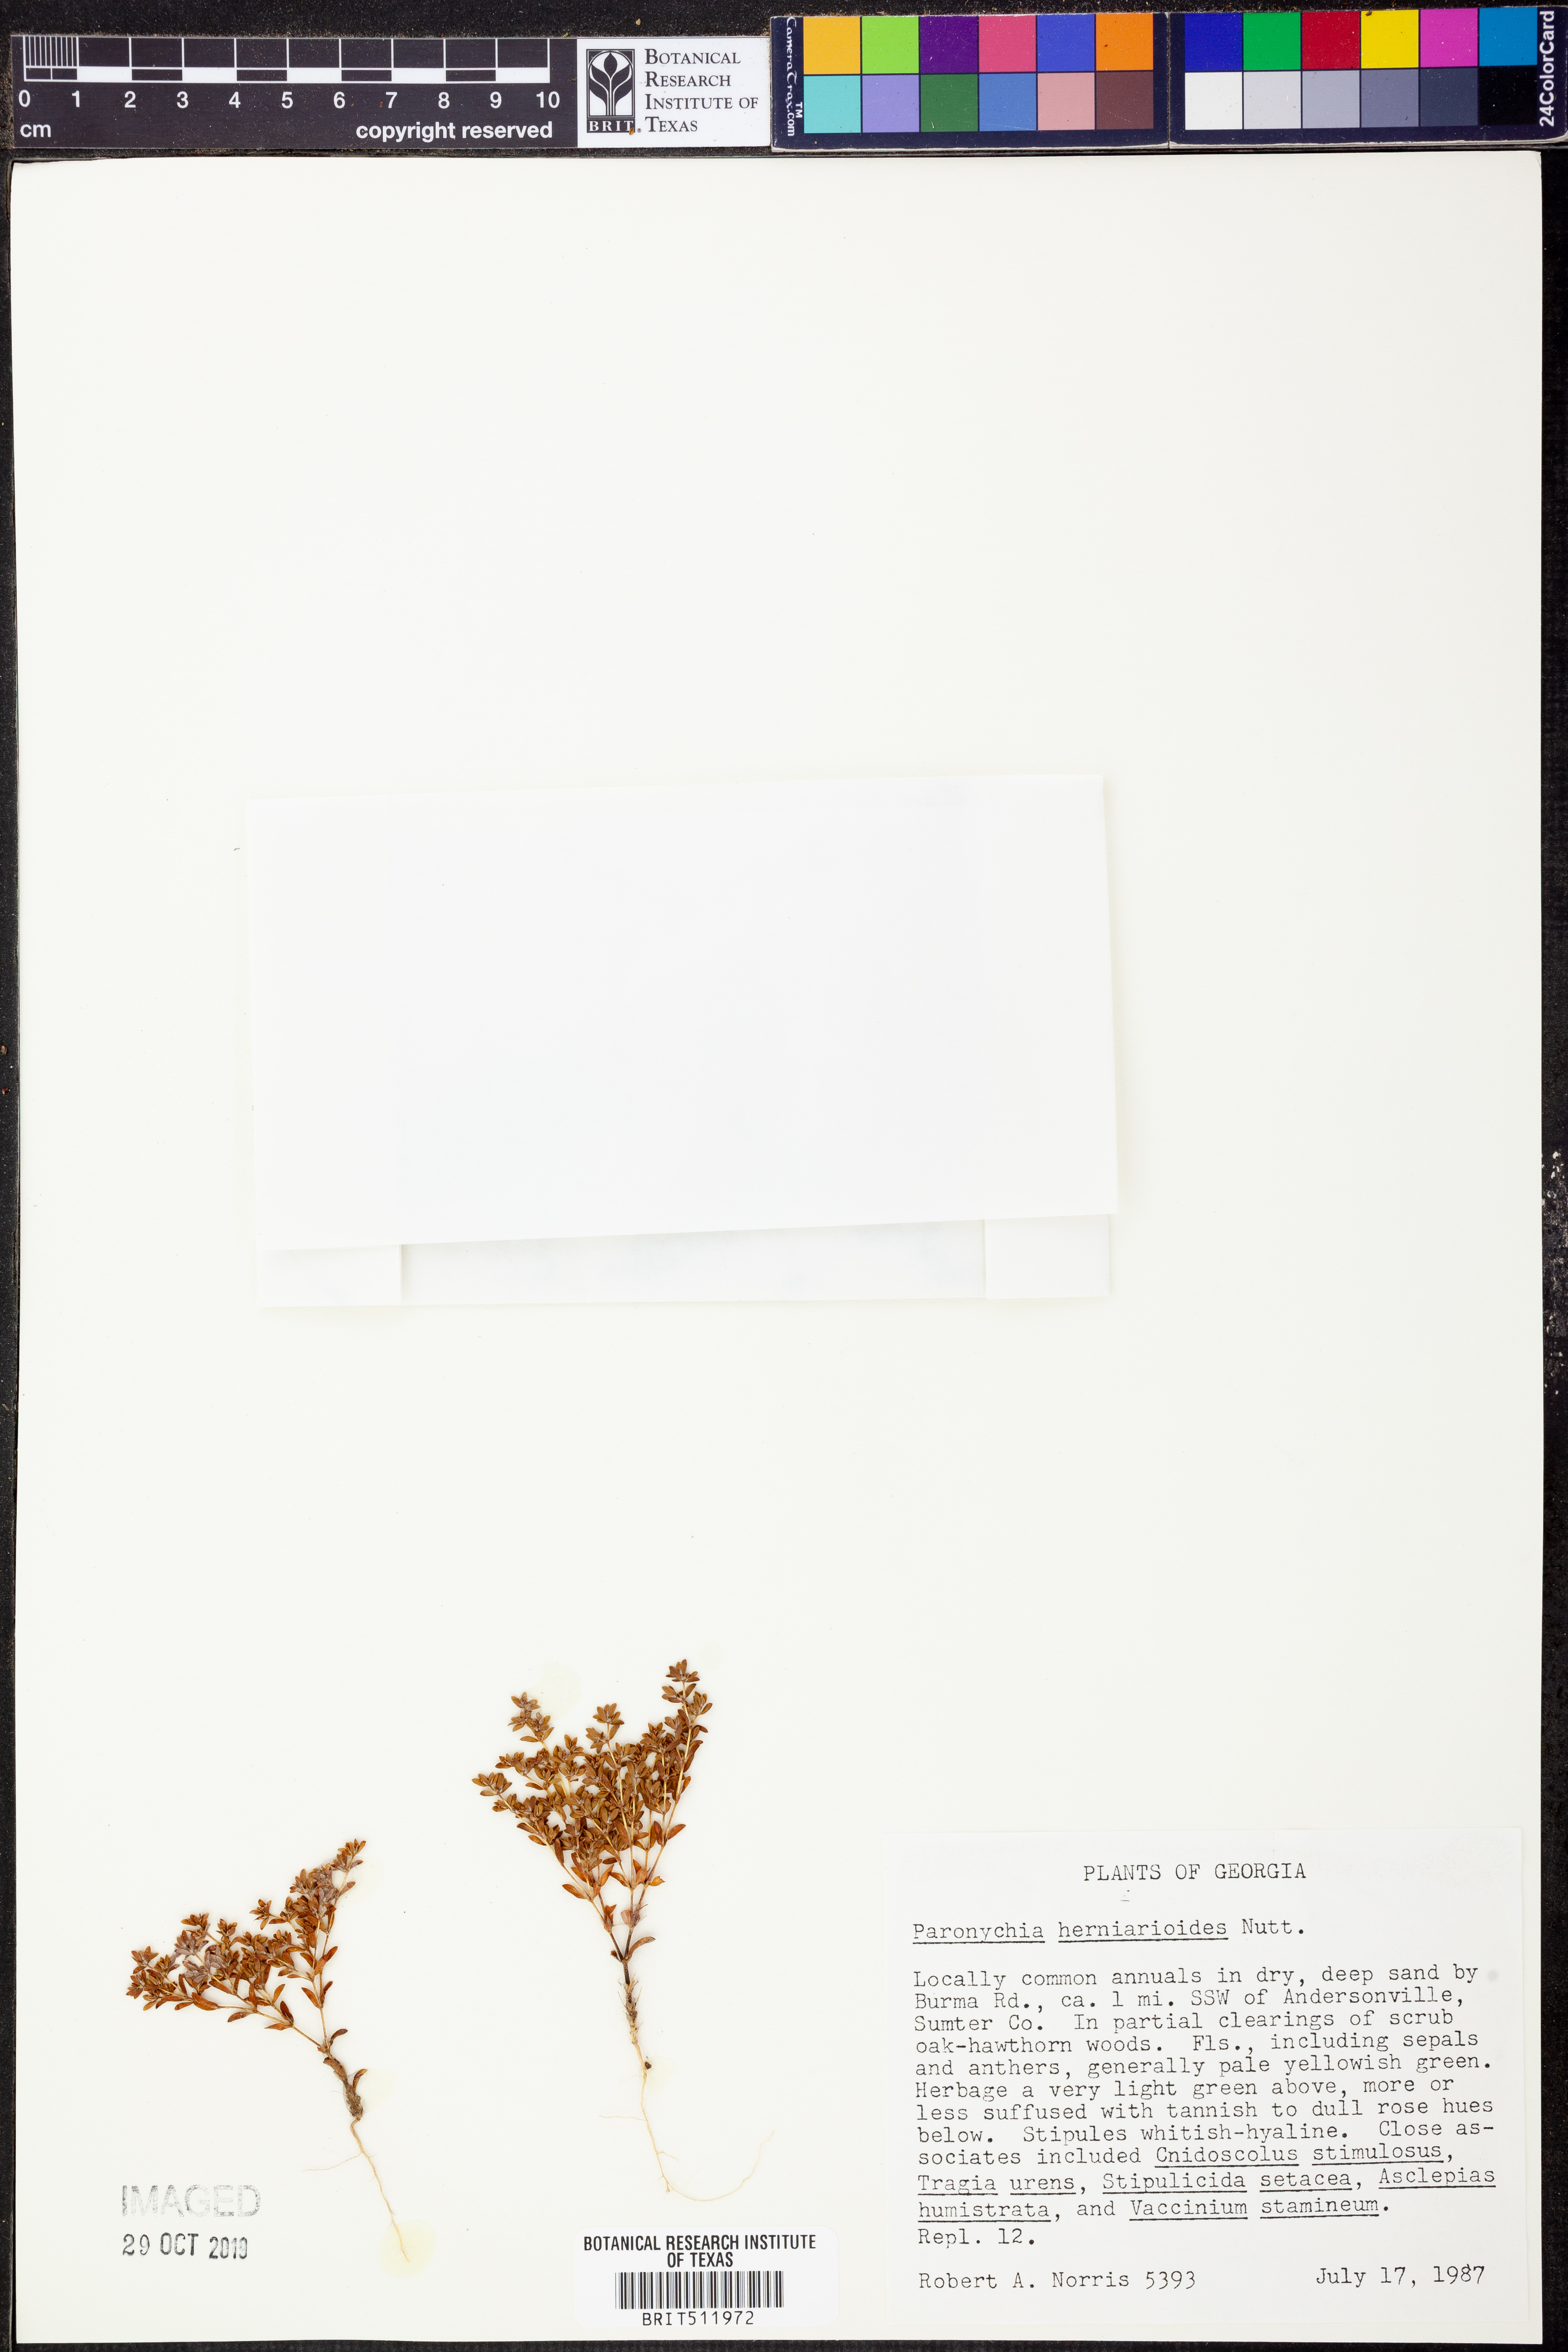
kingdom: Plantae
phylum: Tracheophyta
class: Magnoliopsida
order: Caryophyllales
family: Caryophyllaceae
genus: Paronychia
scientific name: Paronychia herniarioides
